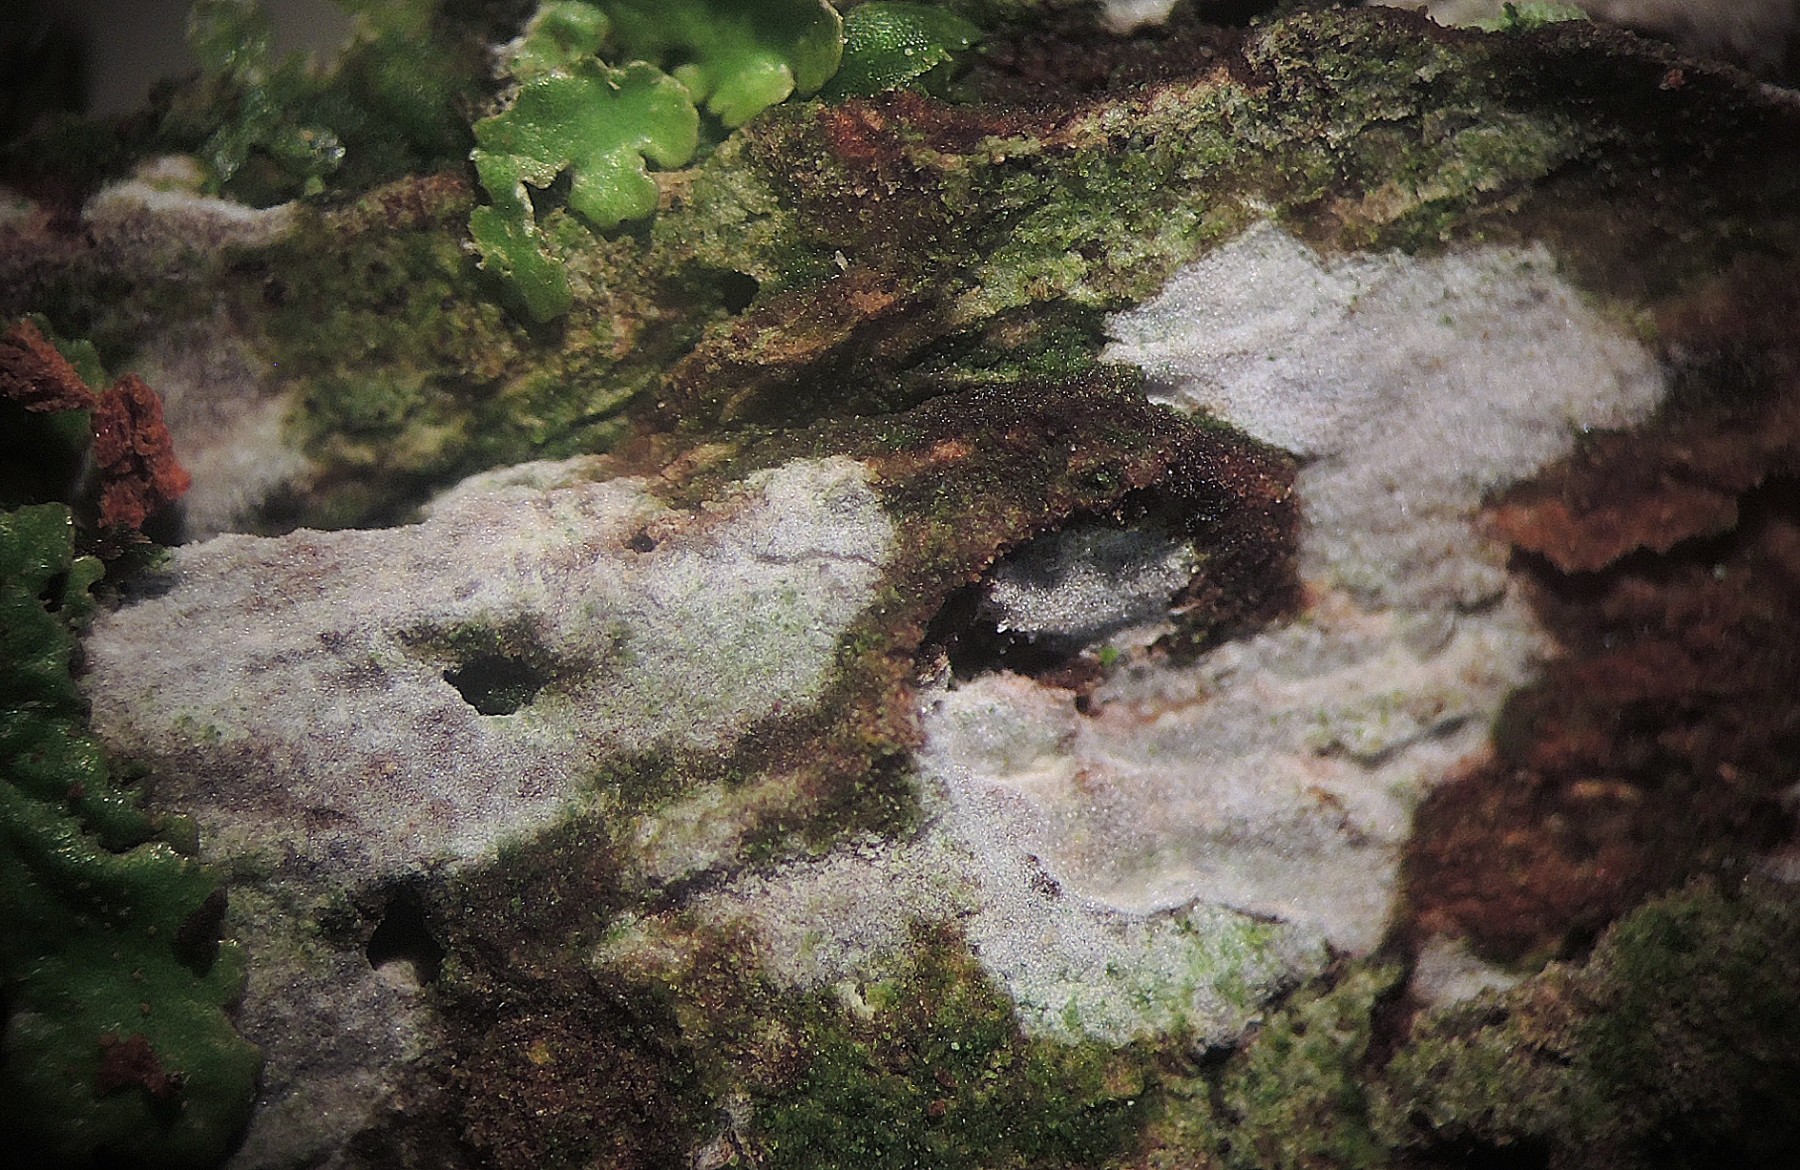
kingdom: Fungi
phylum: Basidiomycota
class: Agaricomycetes
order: Agaricales
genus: Dendrothele
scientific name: Dendrothele citrisporella
